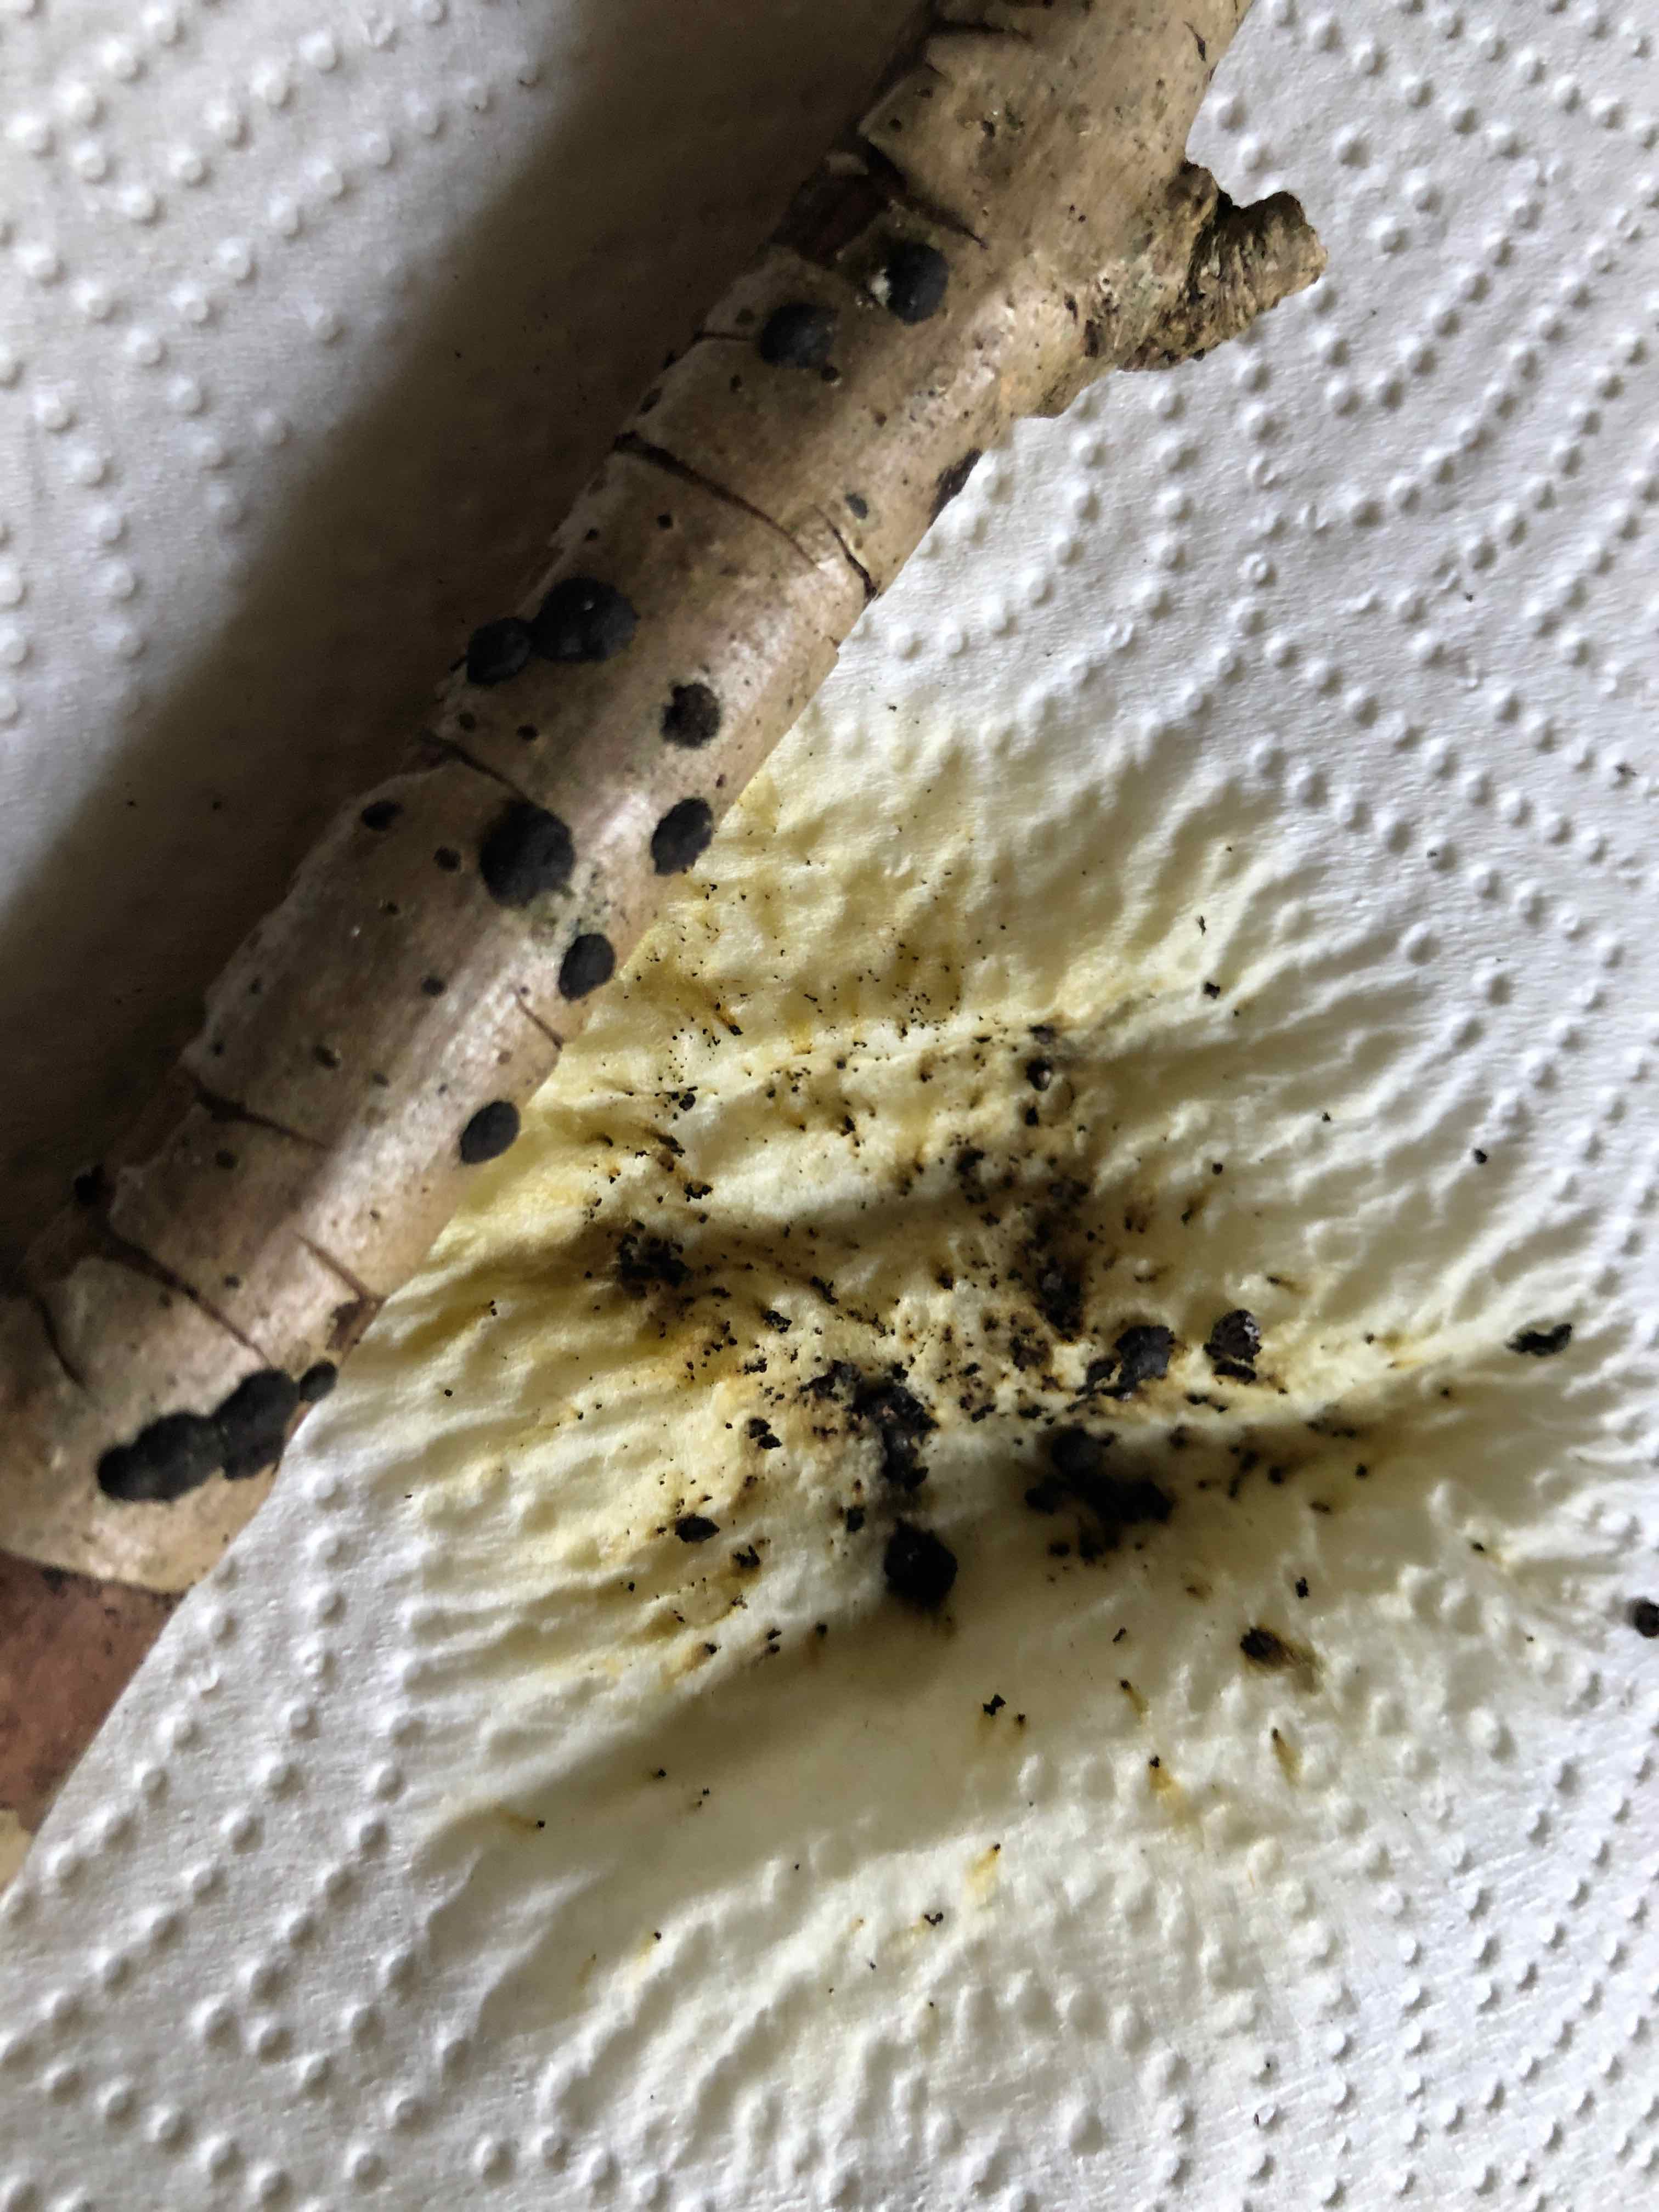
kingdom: Fungi
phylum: Ascomycota
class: Sordariomycetes
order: Xylariales
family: Hypoxylaceae
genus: Hypoxylon
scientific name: Hypoxylon fuscum
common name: kegleformet kulbær
